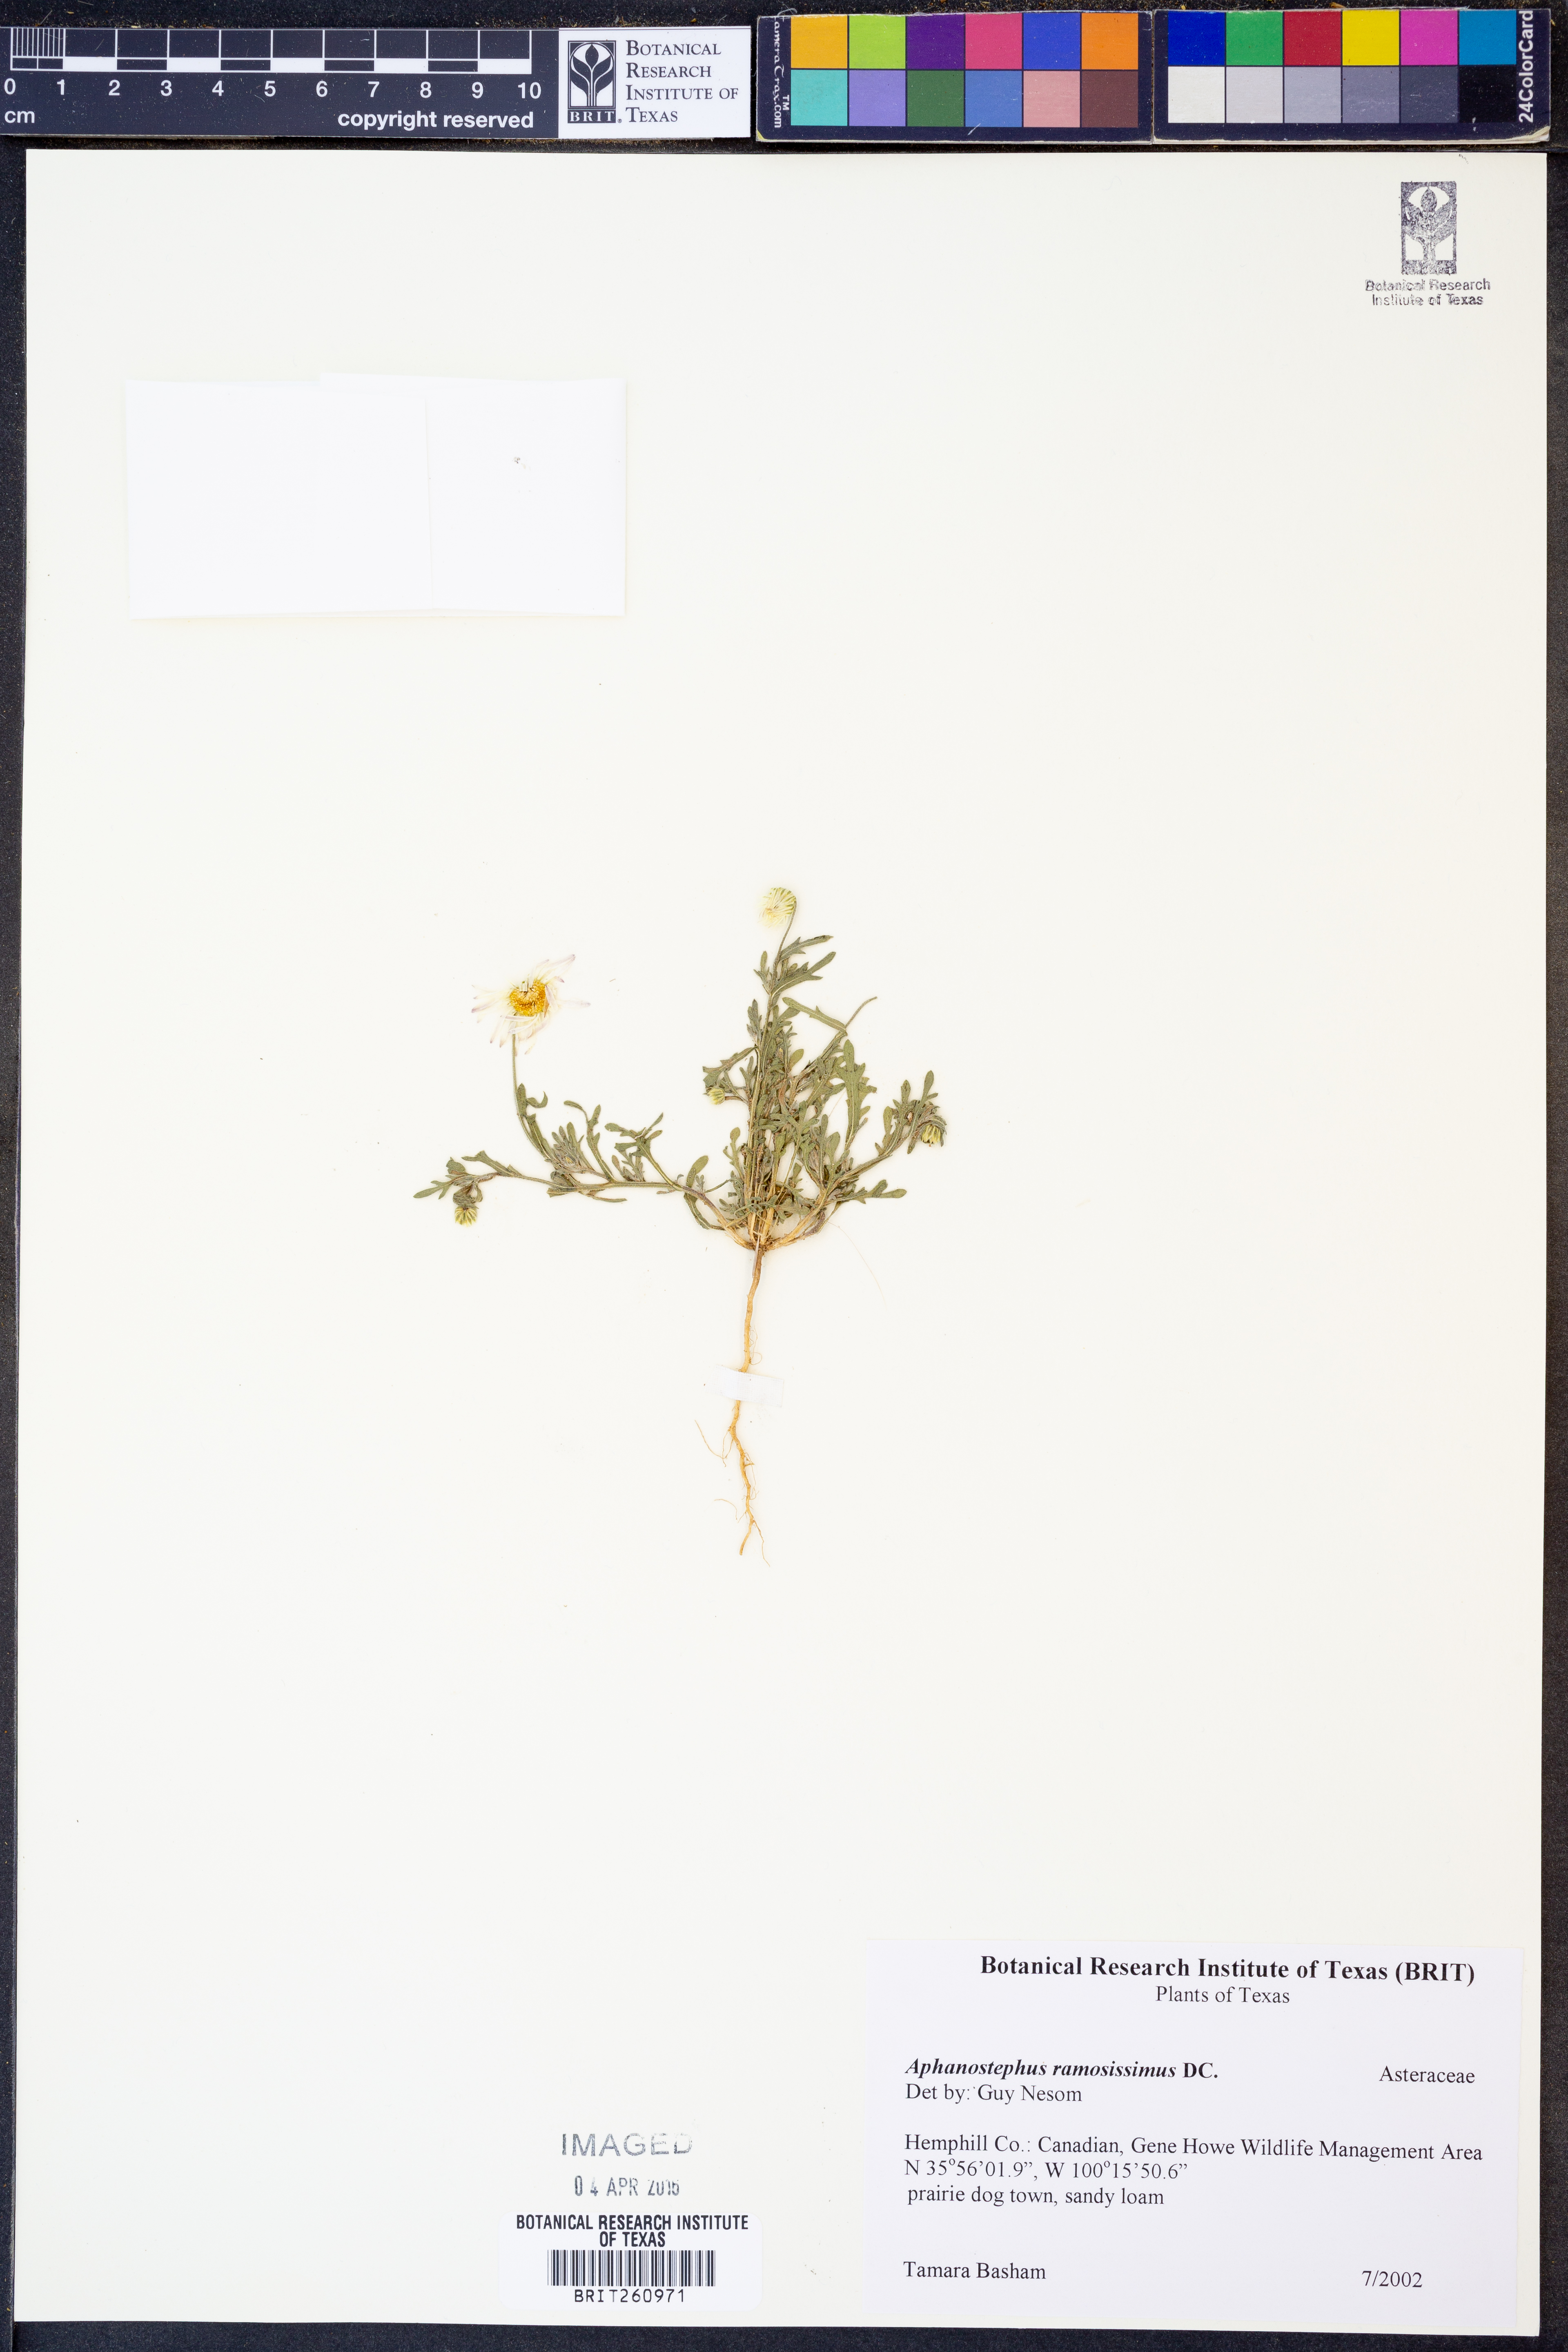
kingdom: Plantae
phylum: Tracheophyta
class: Magnoliopsida
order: Asterales
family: Asteraceae
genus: Aphanostephus
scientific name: Aphanostephus ramosissimus
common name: Plains lazy daisy
